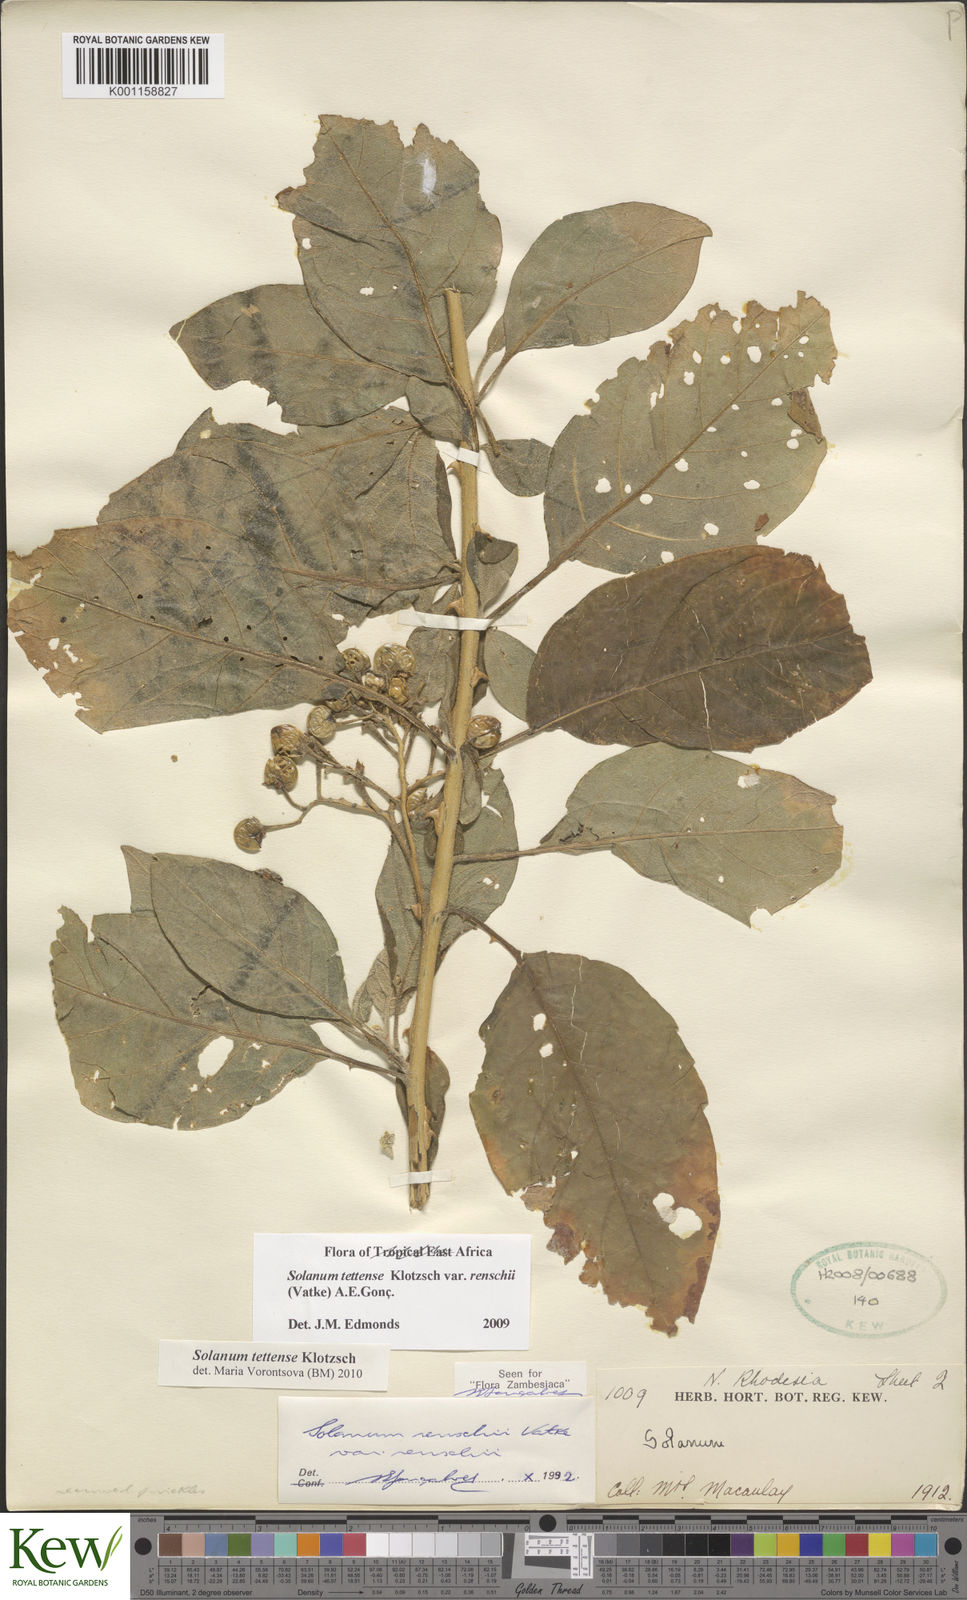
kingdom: Plantae
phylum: Tracheophyta
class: Magnoliopsida
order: Solanales
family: Solanaceae
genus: Solanum
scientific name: Solanum tettense
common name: Mozambique bitter apple
